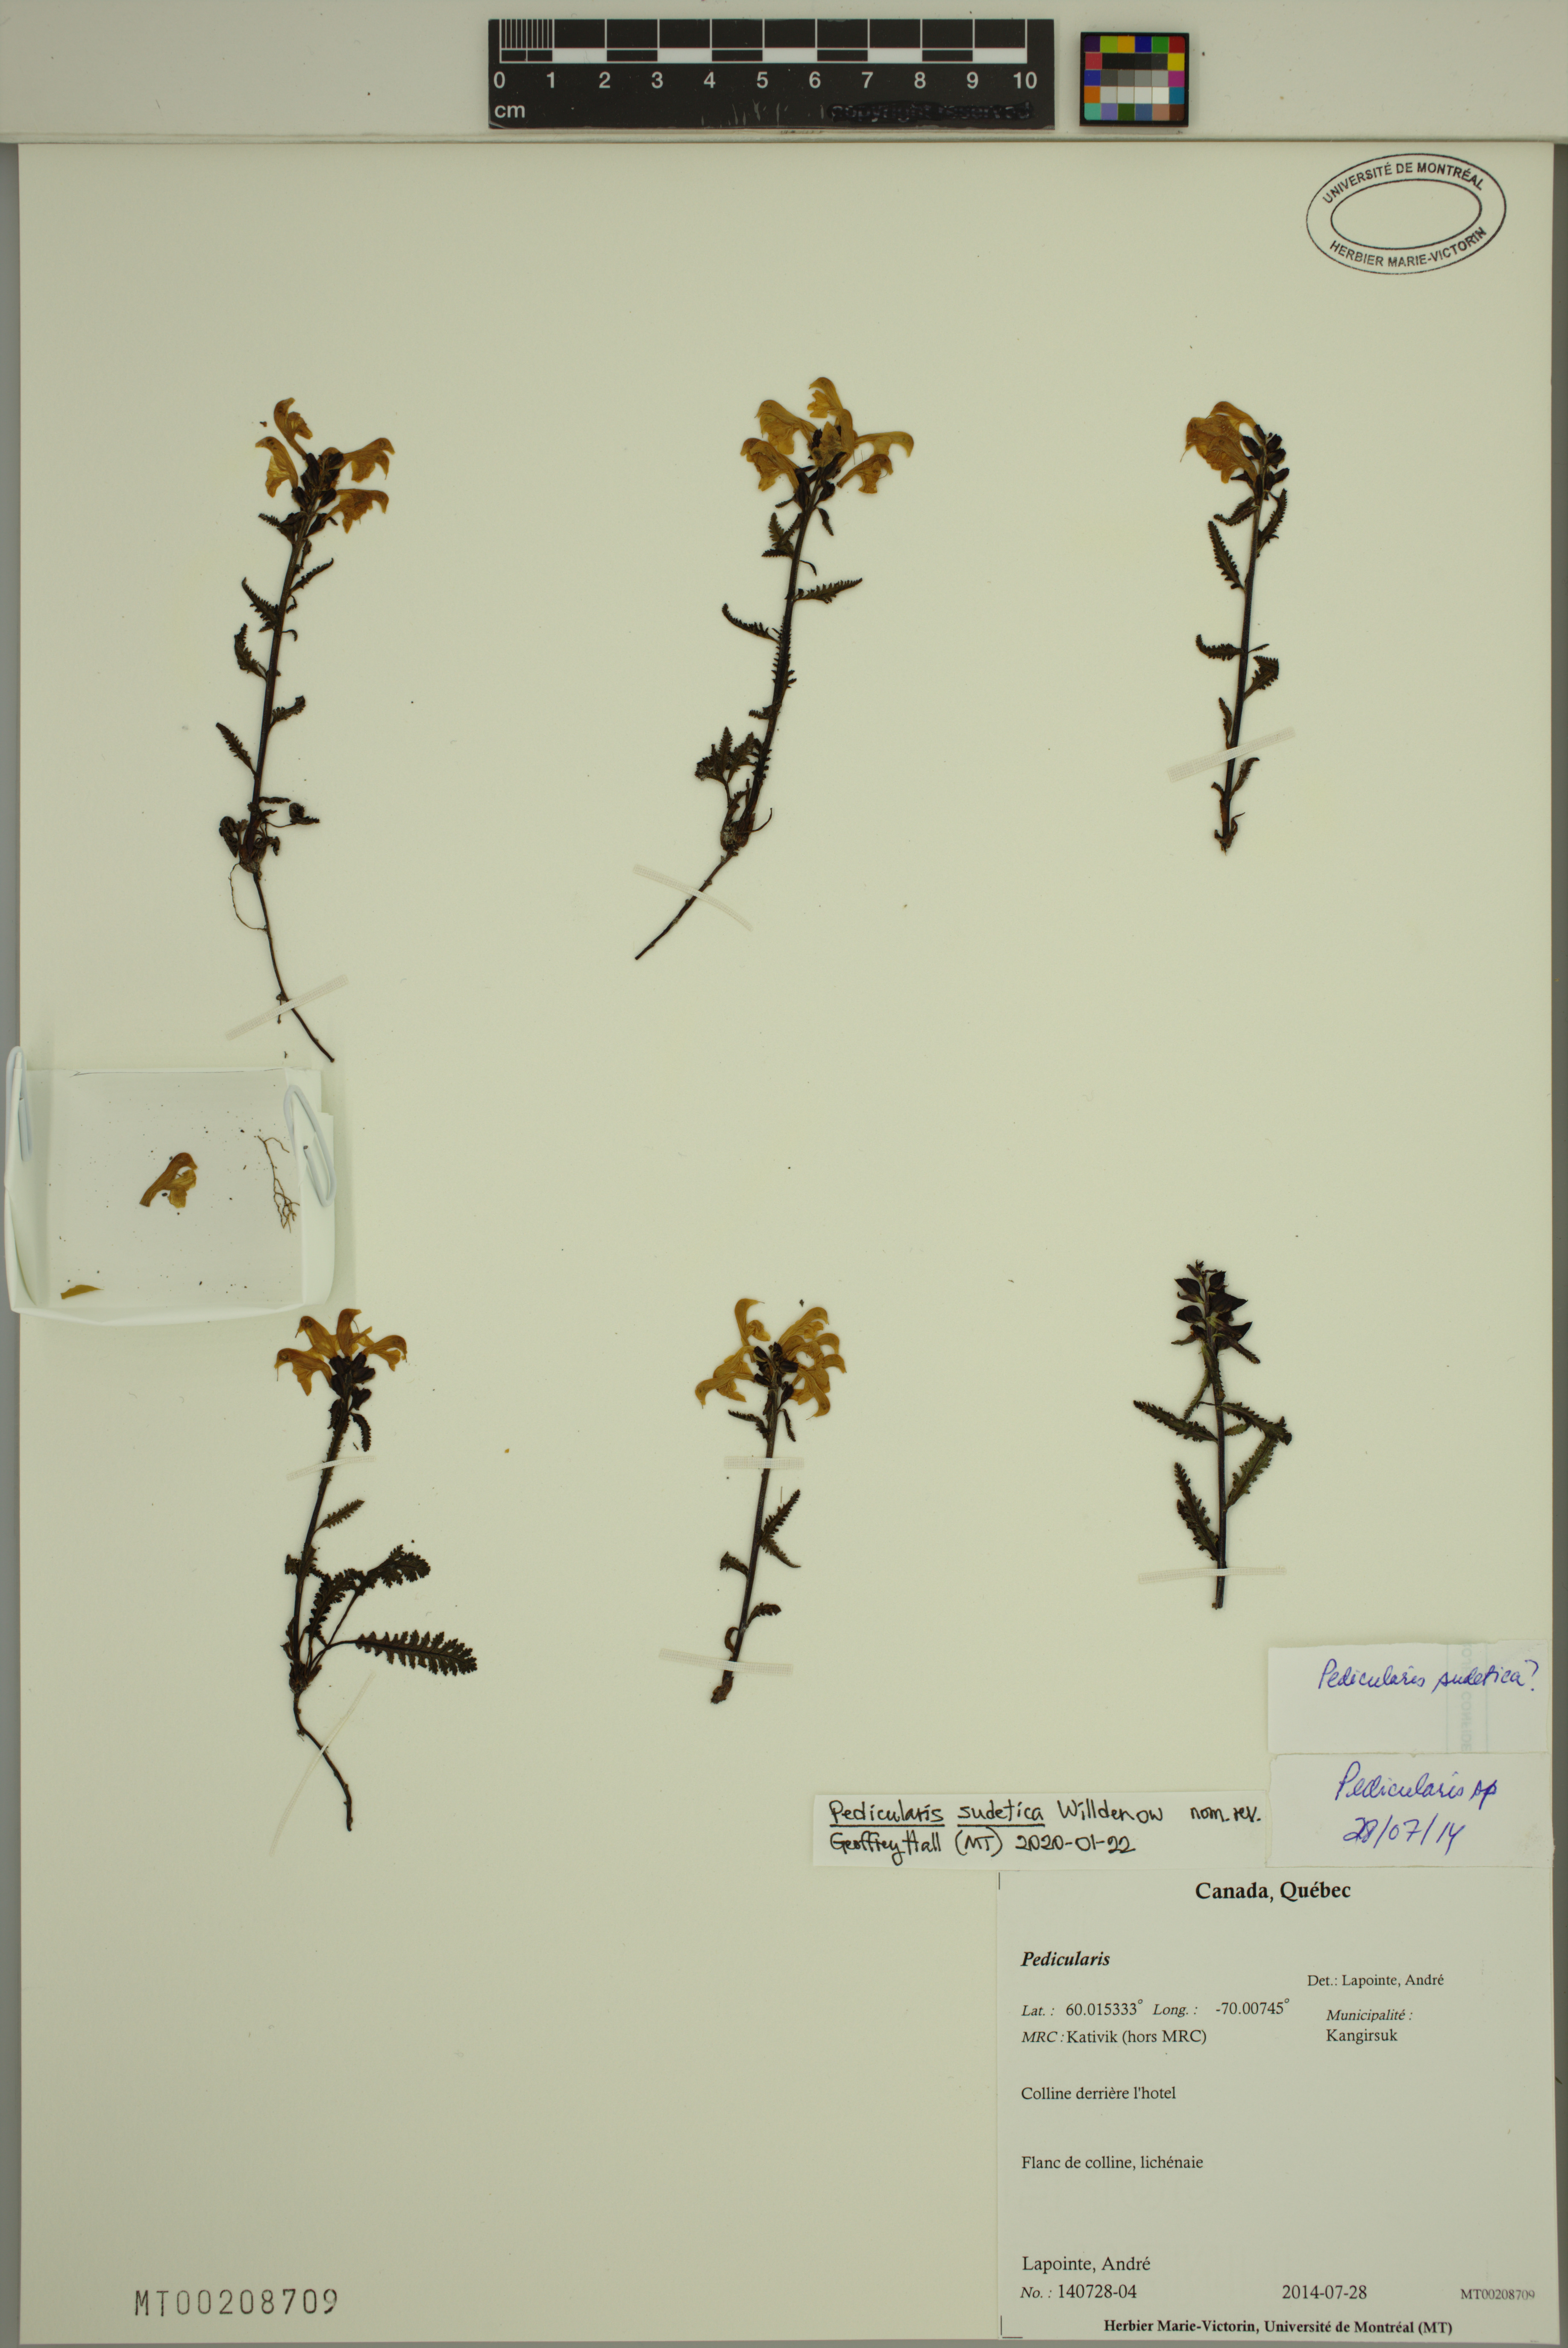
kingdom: Plantae
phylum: Tracheophyta
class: Magnoliopsida
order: Lamiales
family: Orobanchaceae
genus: Pedicularis
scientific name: Pedicularis sudetica
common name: Sudeten lousewort
